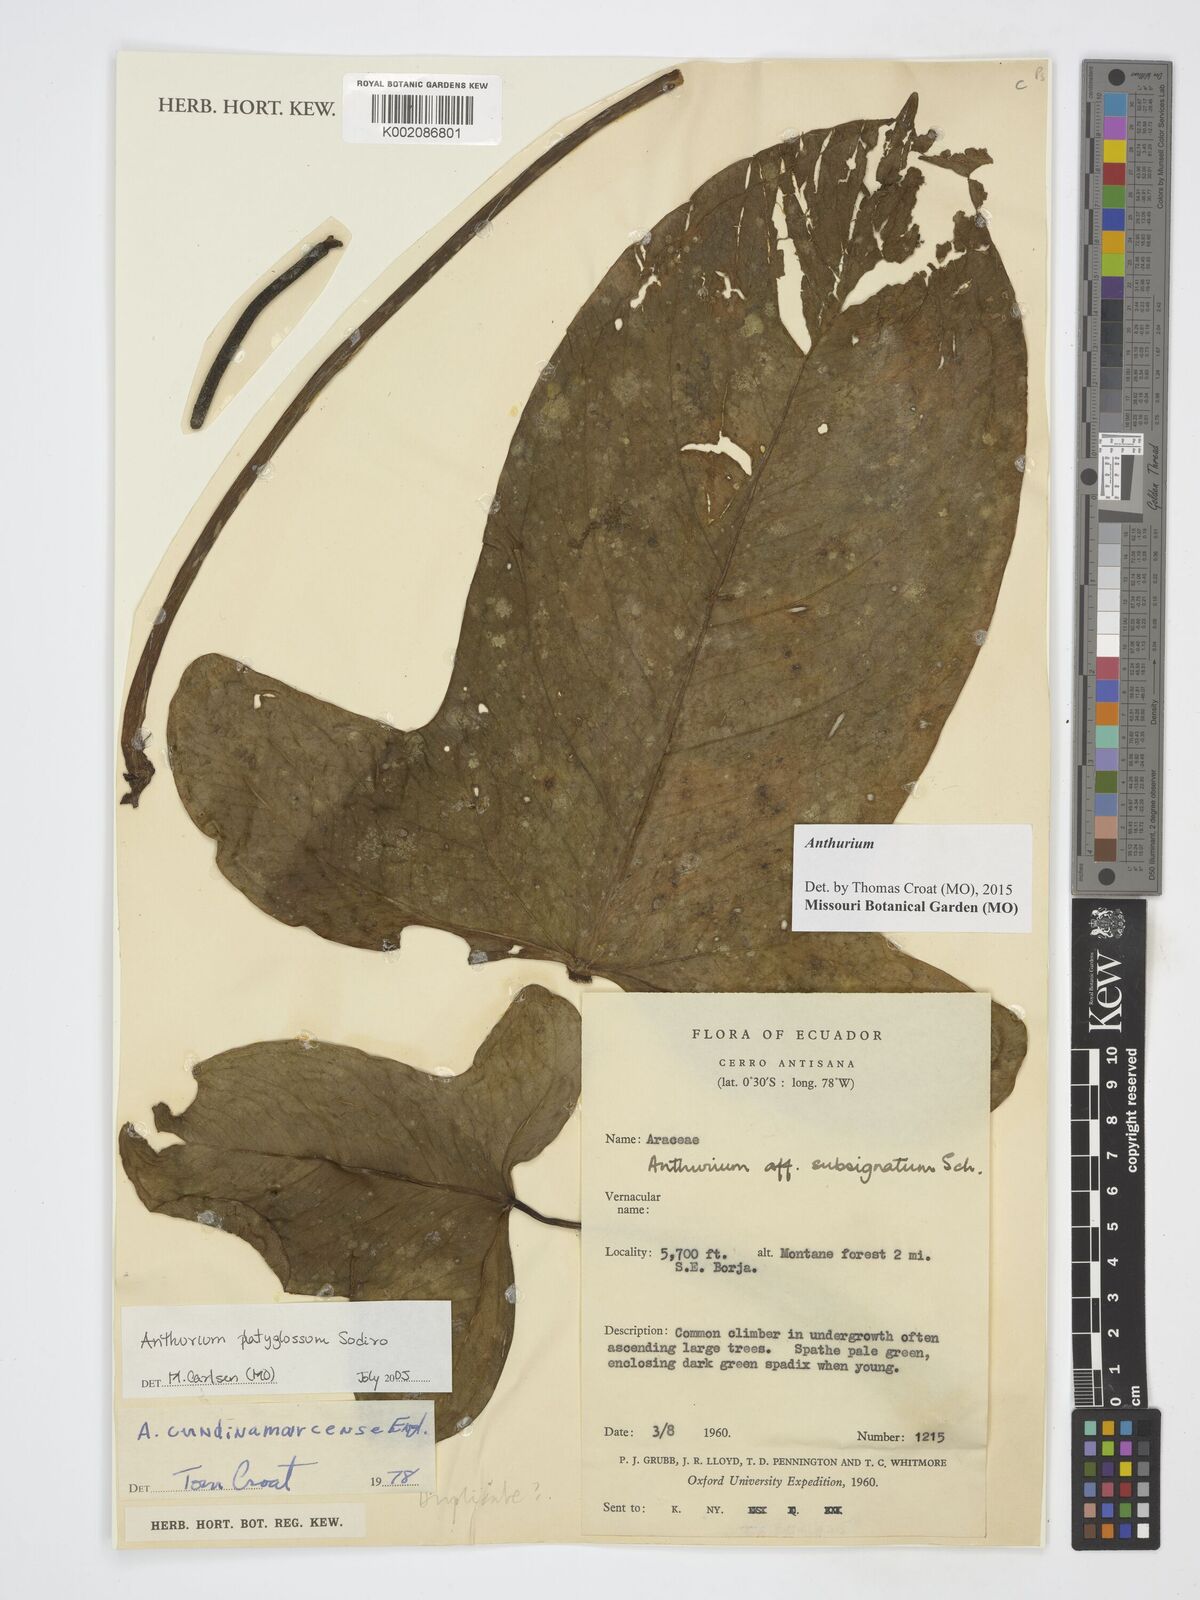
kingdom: Plantae
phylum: Tracheophyta
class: Liliopsida
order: Alismatales
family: Araceae
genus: Anthurium
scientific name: Anthurium platyglossum
